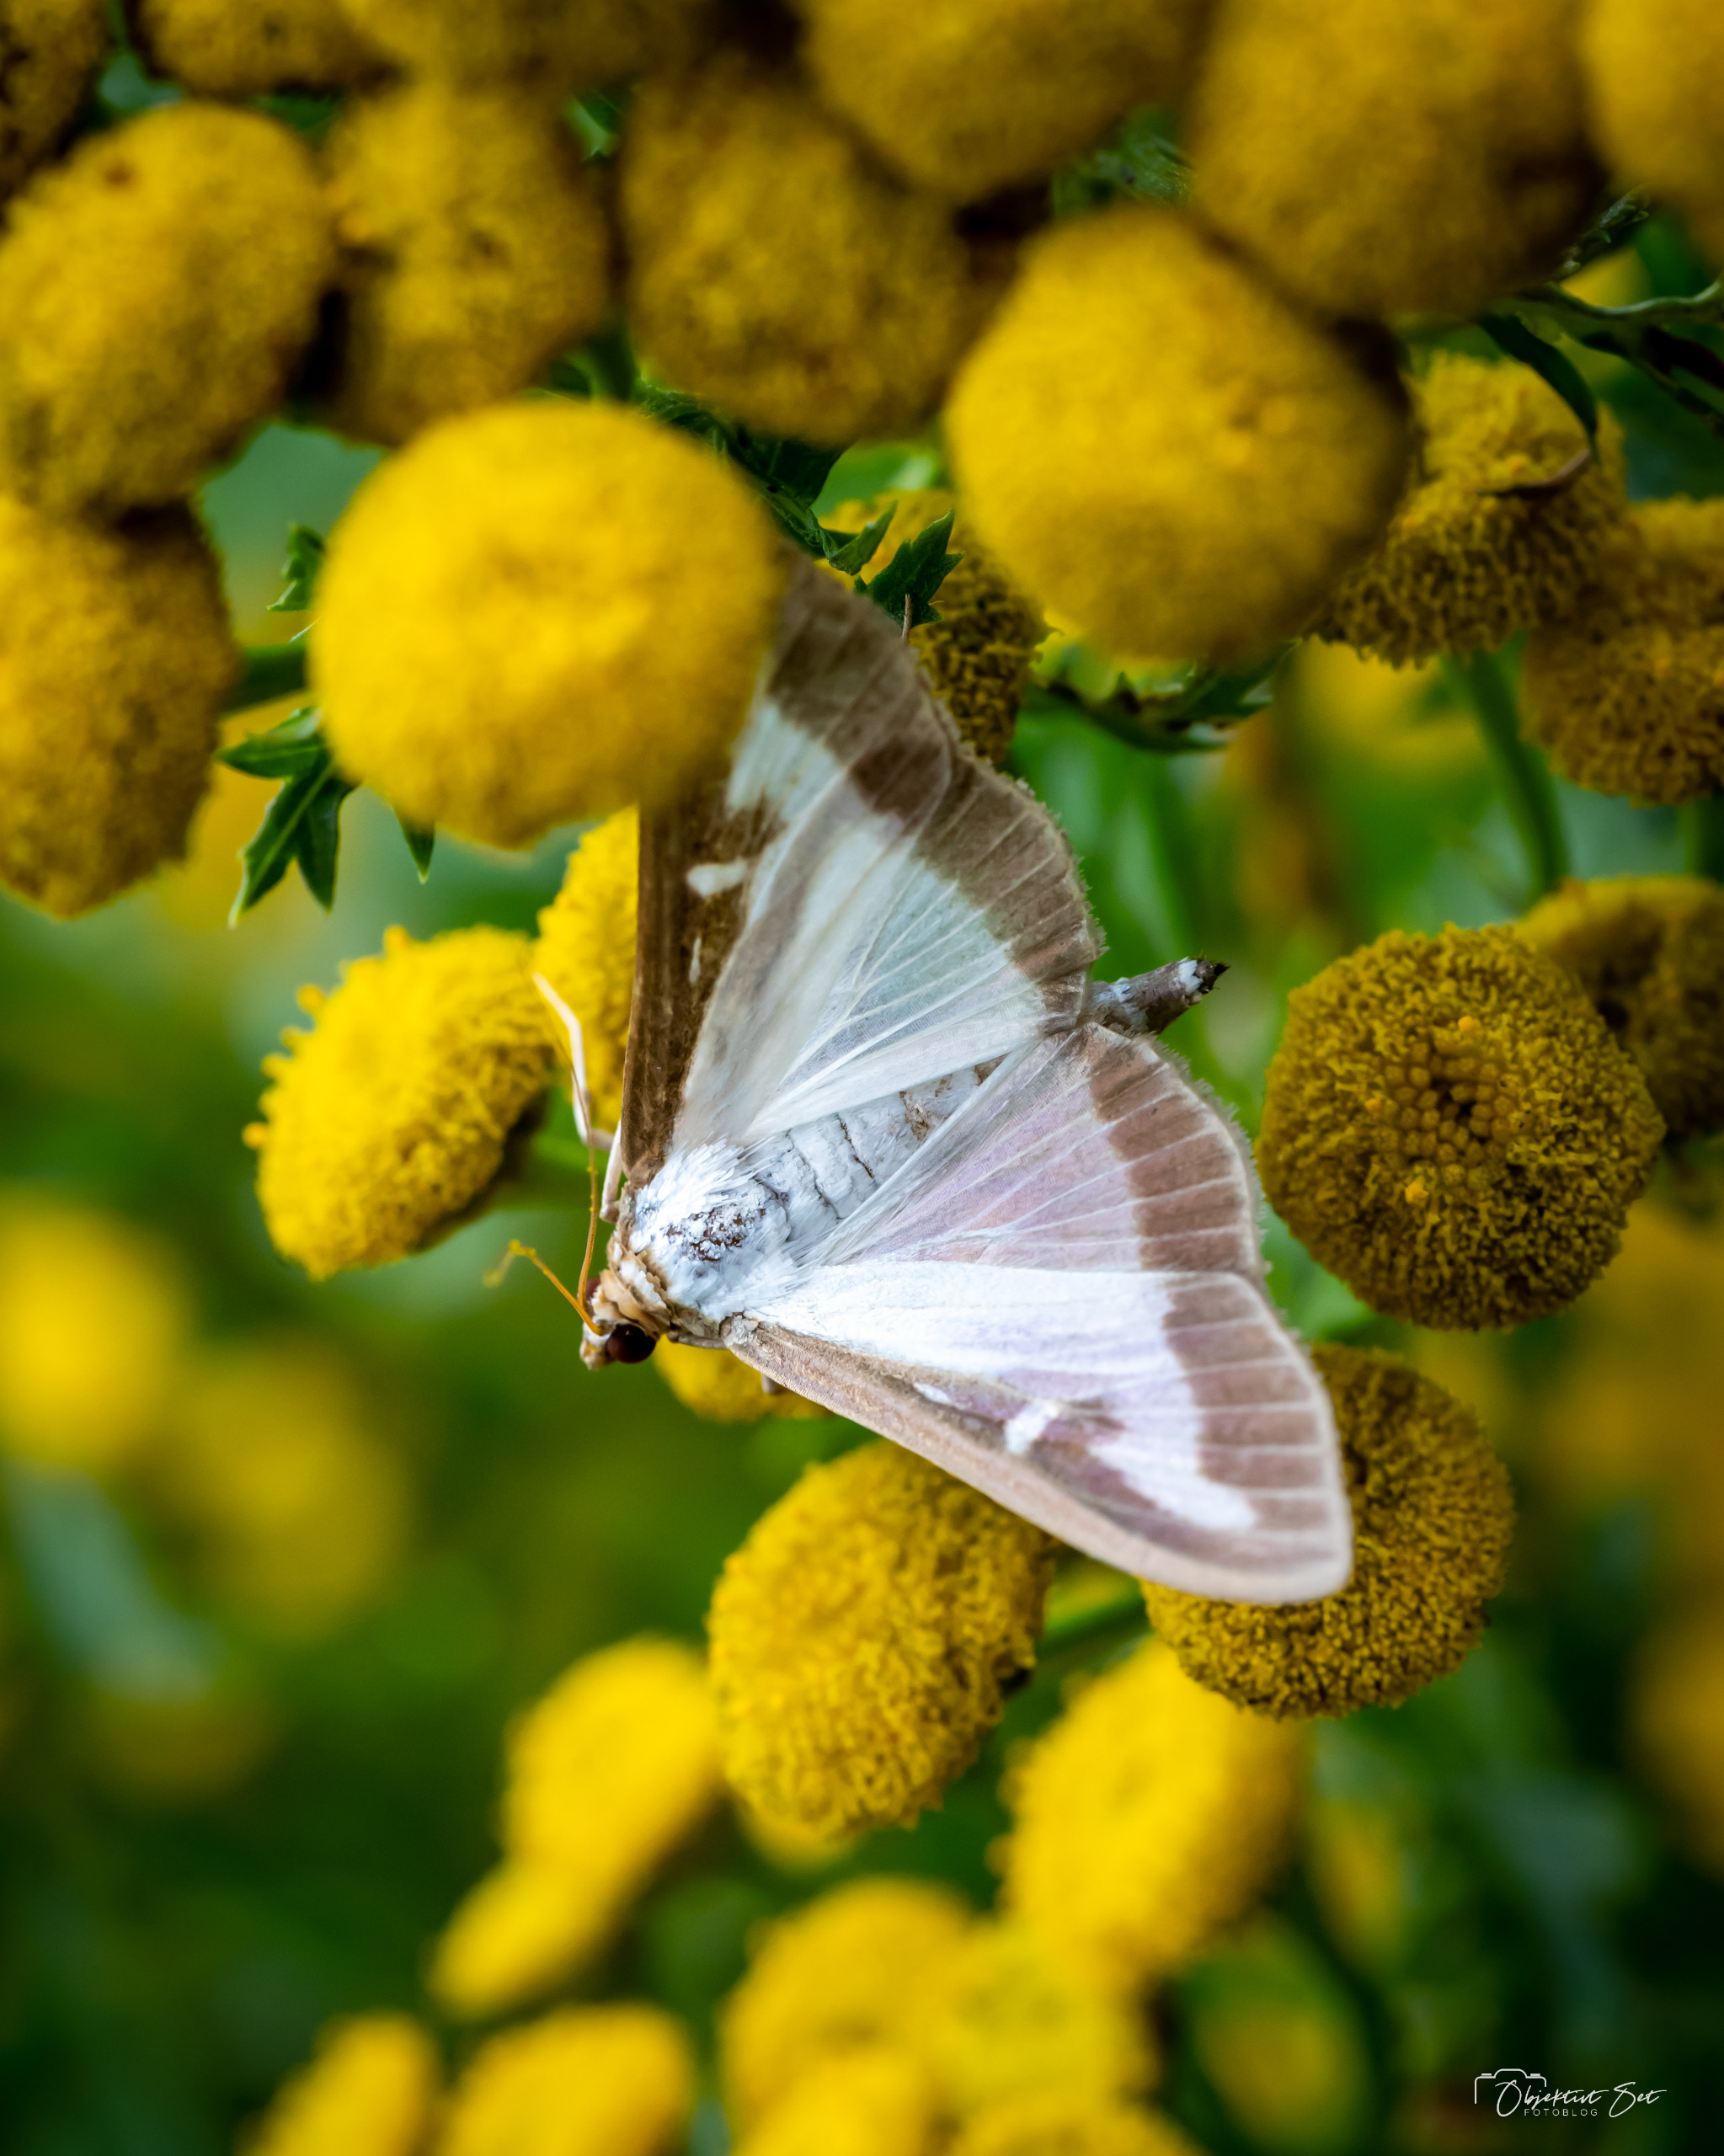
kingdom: Animalia
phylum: Arthropoda
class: Insecta
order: Lepidoptera
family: Crambidae
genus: Cydalima
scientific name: Cydalima perspectalis
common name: Buksbomhalvmøl
